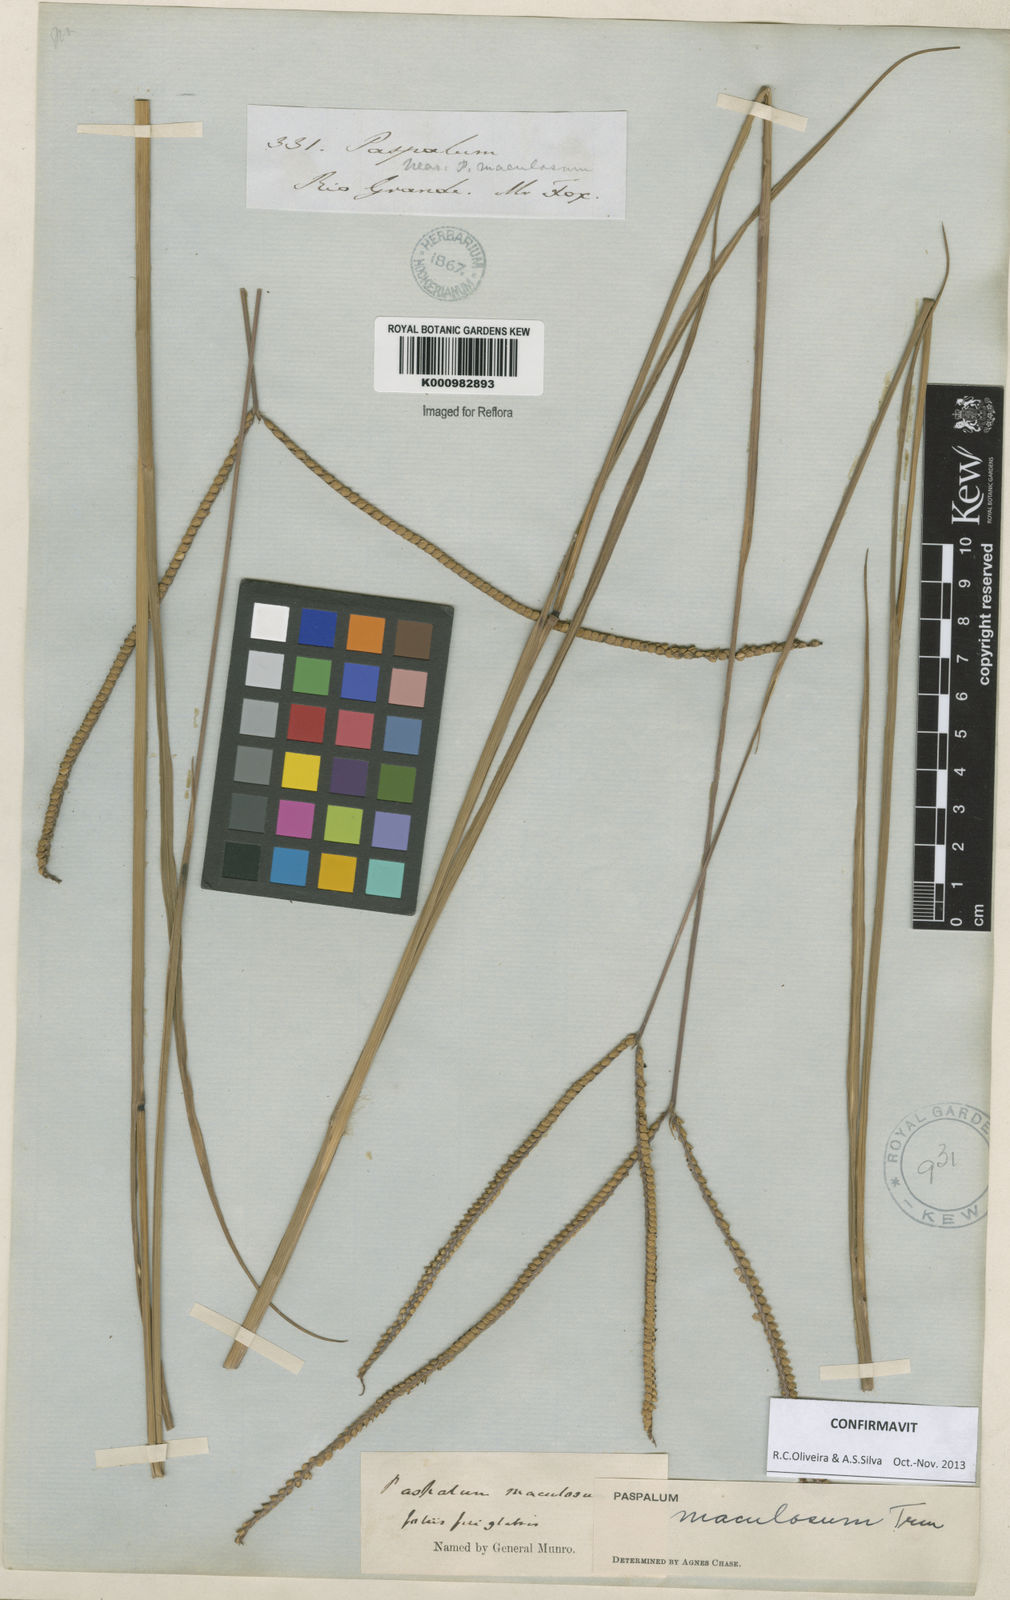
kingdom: Plantae
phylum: Tracheophyta
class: Liliopsida
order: Poales
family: Poaceae
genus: Paspalum
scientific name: Paspalum maculosum
